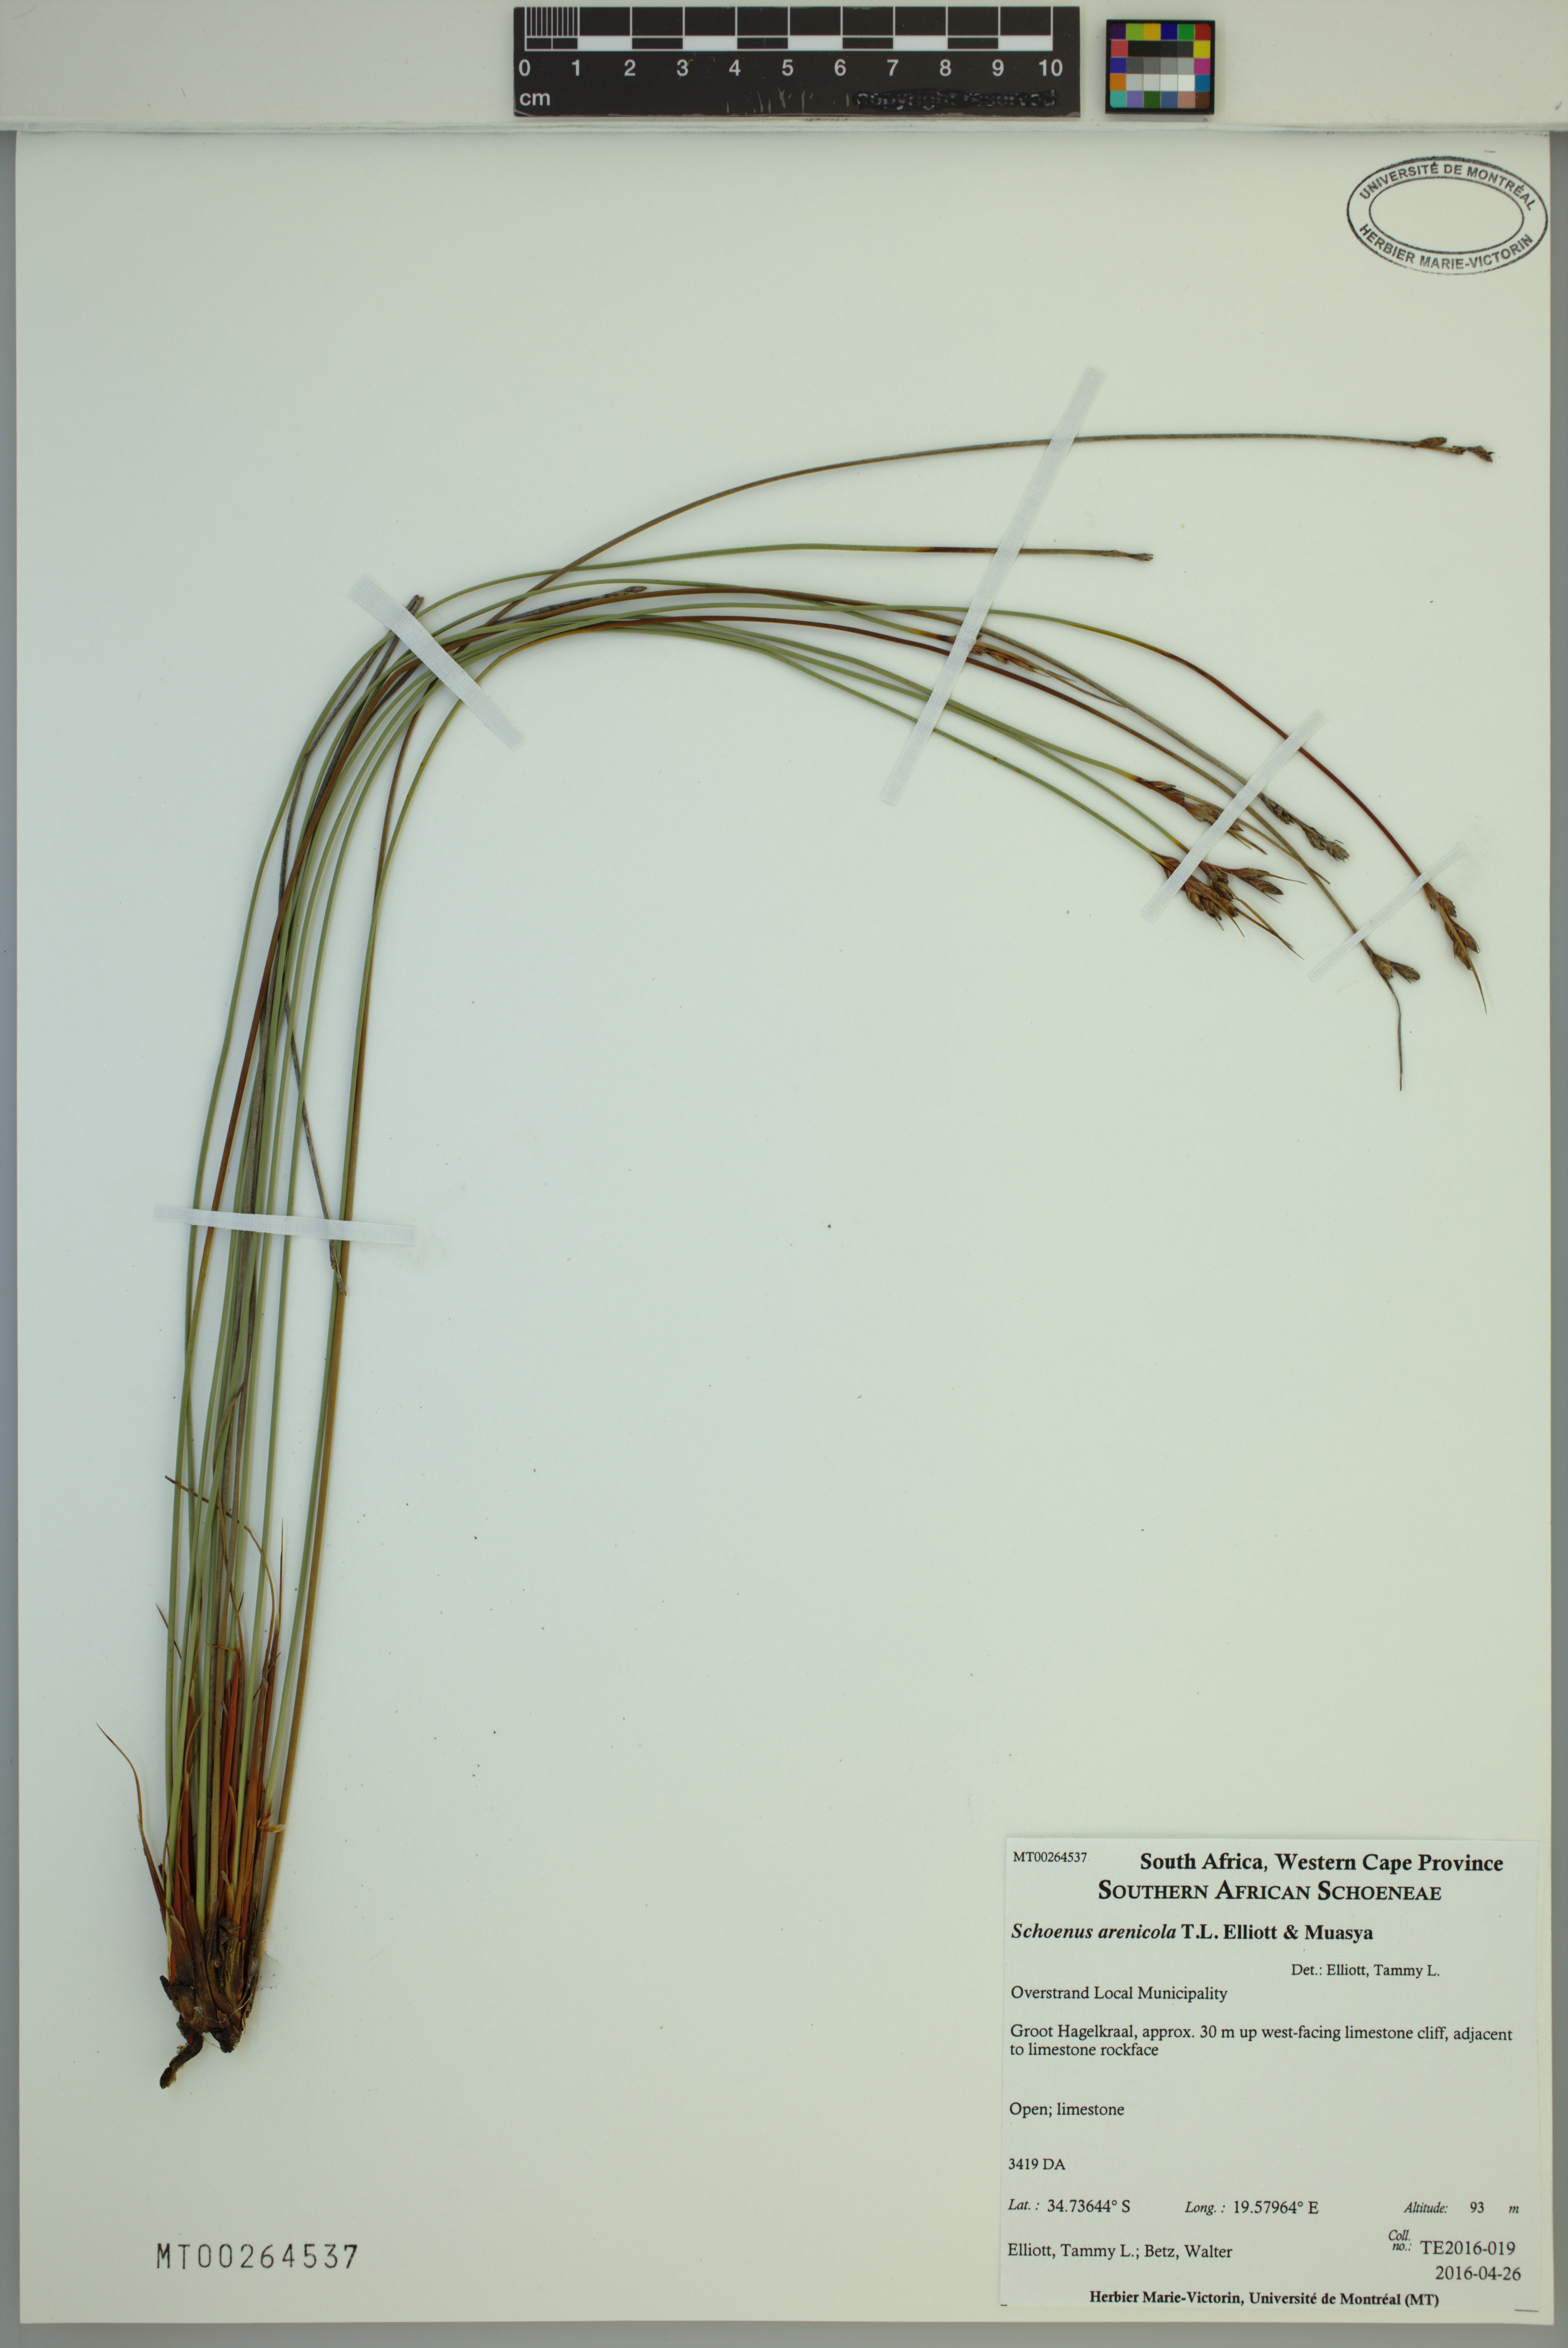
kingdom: Plantae
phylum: Tracheophyta
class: Liliopsida
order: Poales
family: Cyperaceae
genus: Schoenus
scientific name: Schoenus arenicola
